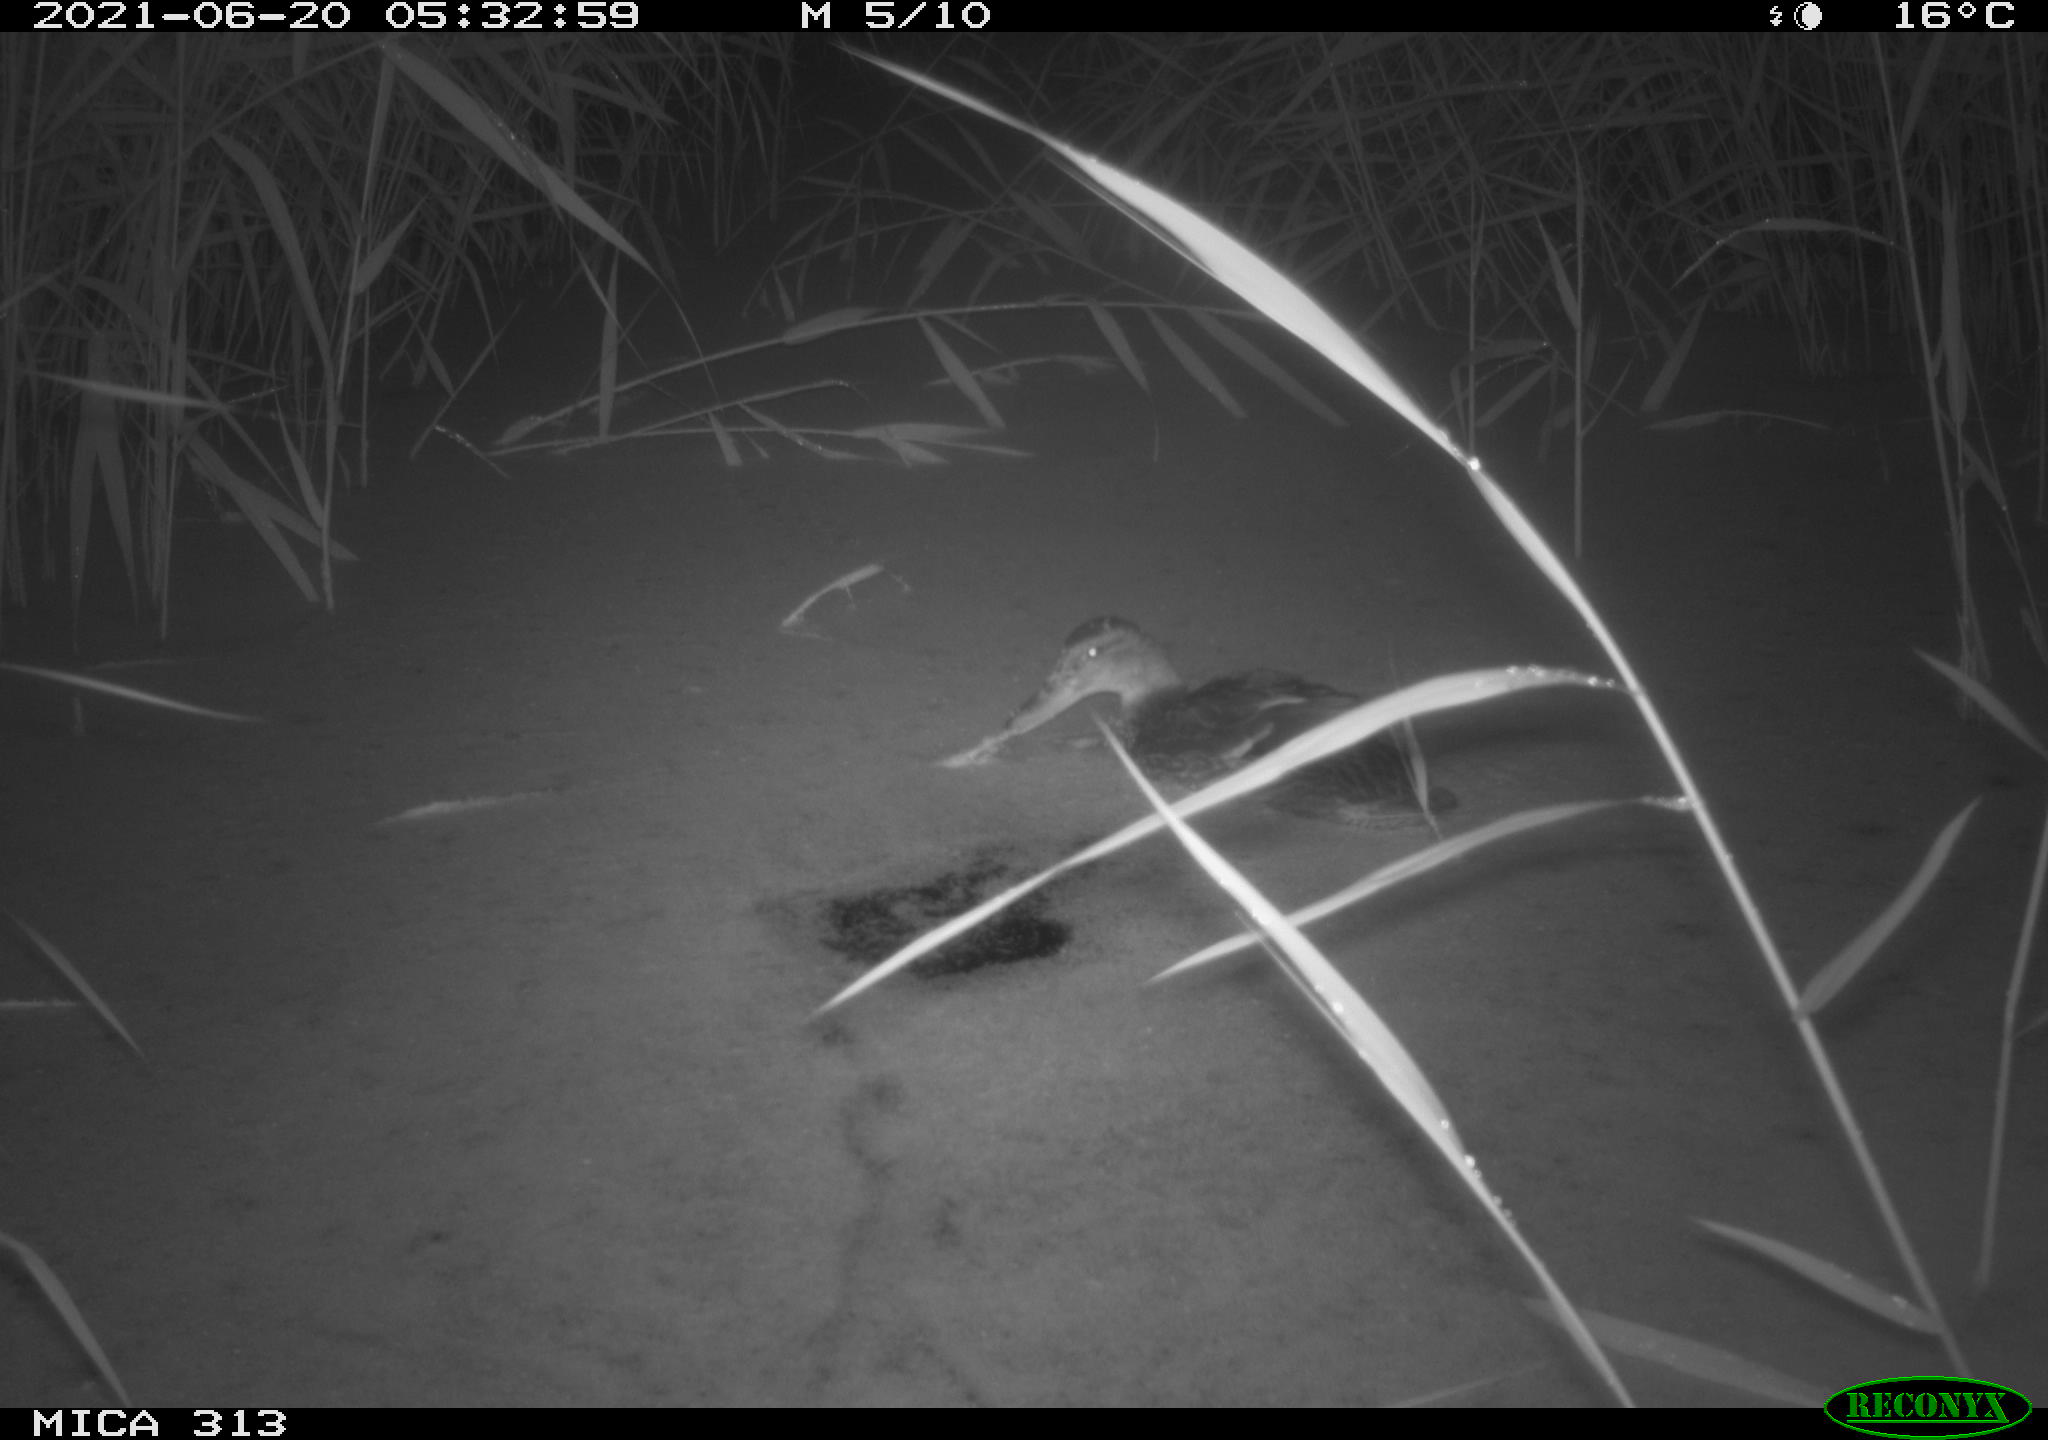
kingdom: Animalia
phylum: Chordata
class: Aves
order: Anseriformes
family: Anatidae
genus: Anas
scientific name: Anas
